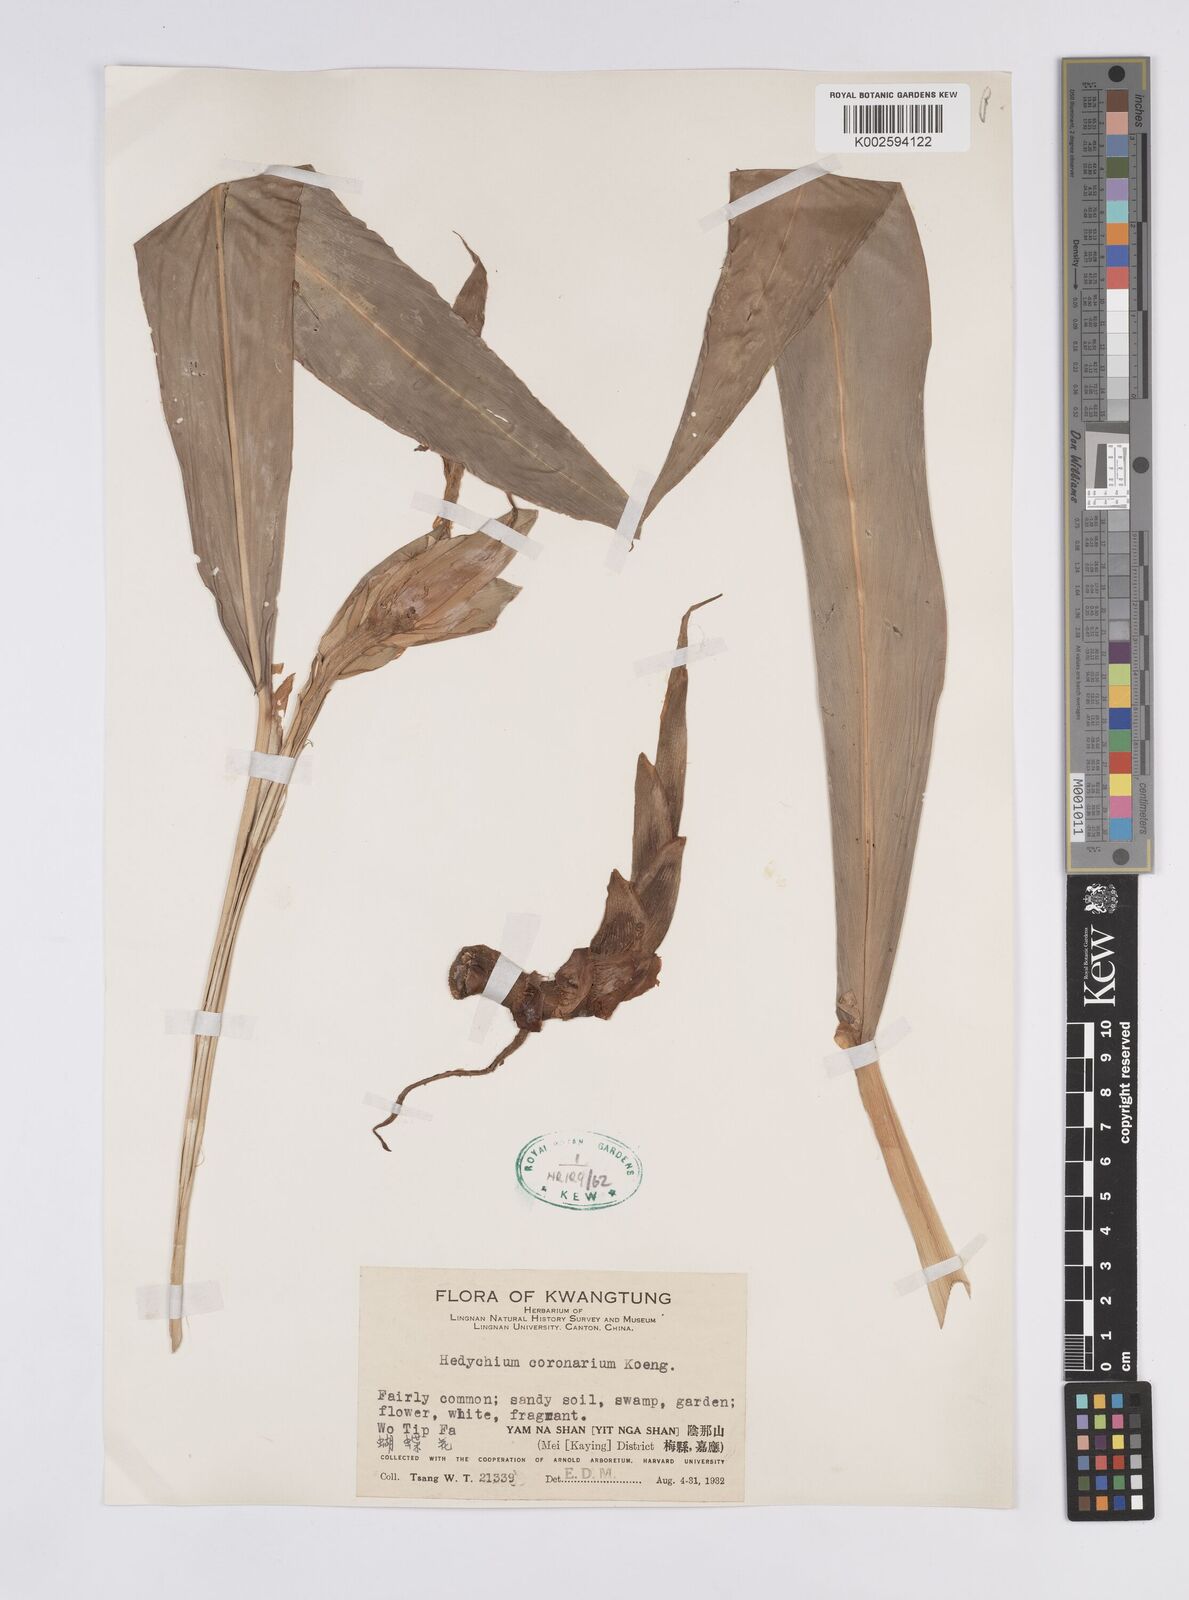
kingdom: Plantae
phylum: Tracheophyta
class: Liliopsida
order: Zingiberales
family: Zingiberaceae
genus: Hedychium
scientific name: Hedychium coronarium
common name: White garland-lily
